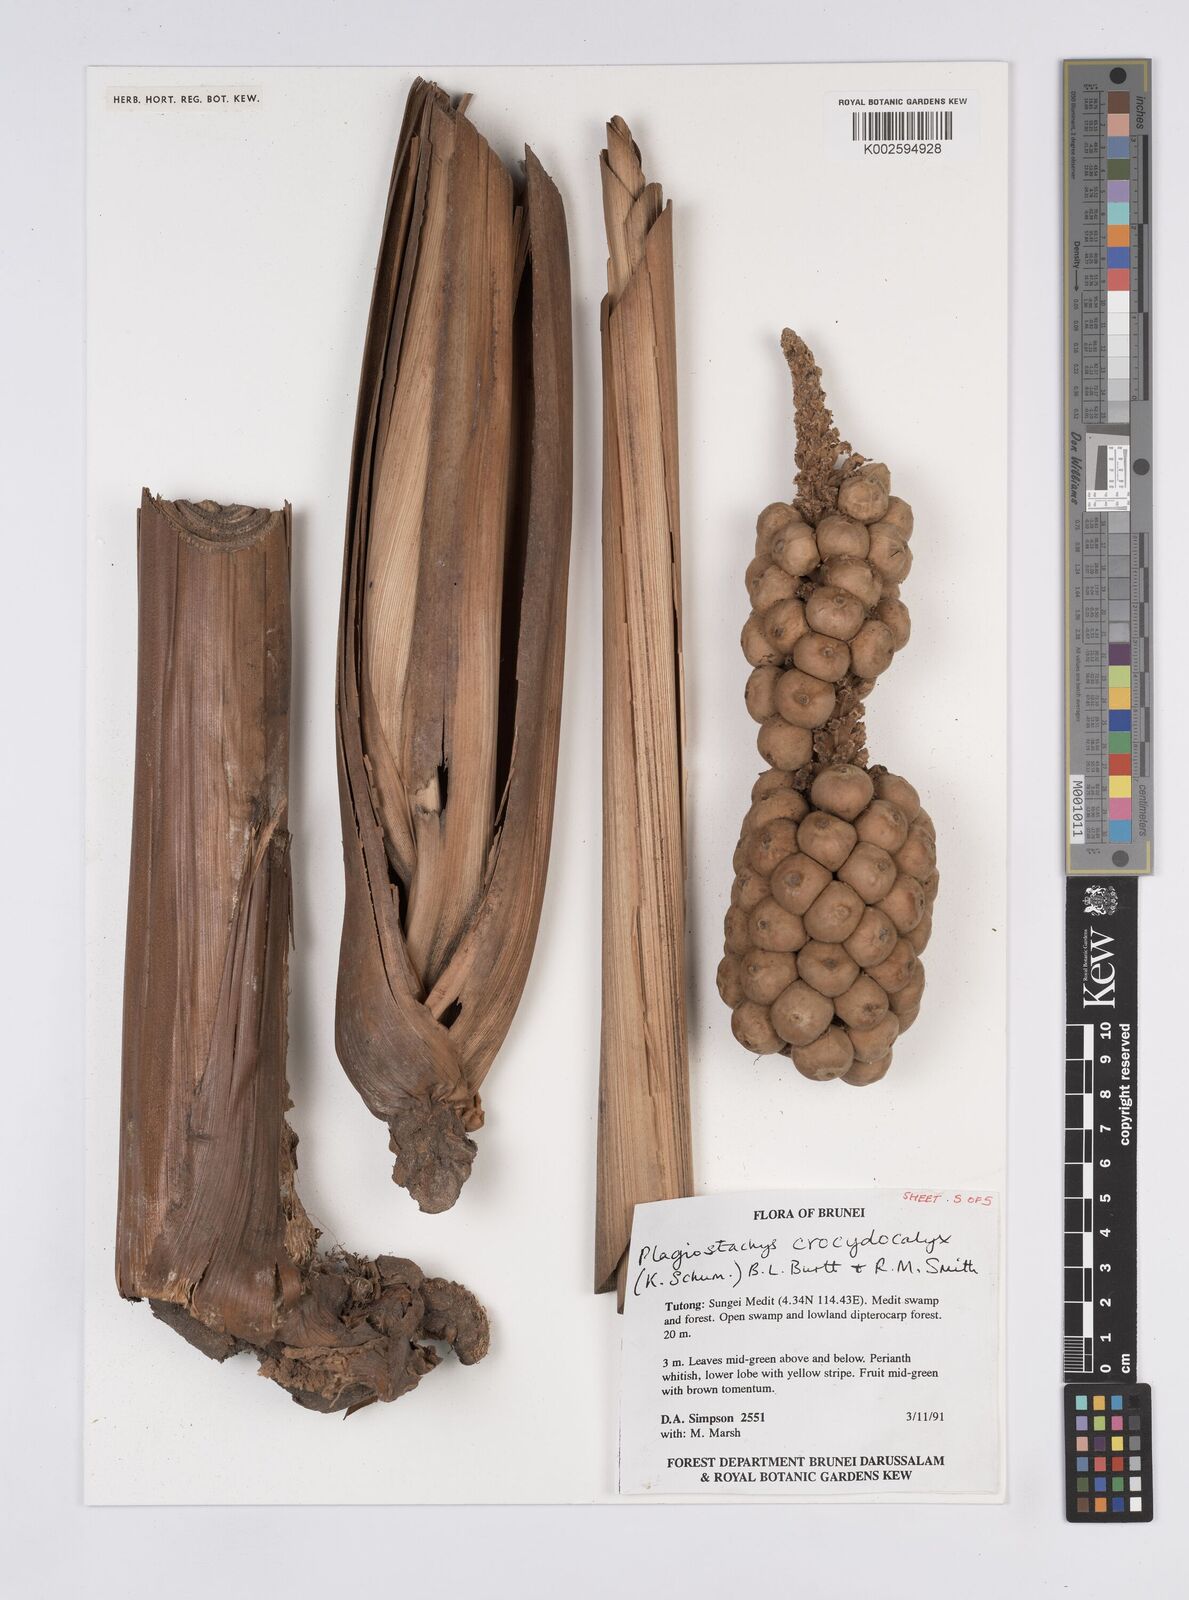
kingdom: Plantae
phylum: Tracheophyta
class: Liliopsida
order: Zingiberales
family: Zingiberaceae
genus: Plagiostachys
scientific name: Plagiostachys crocydocalyx
